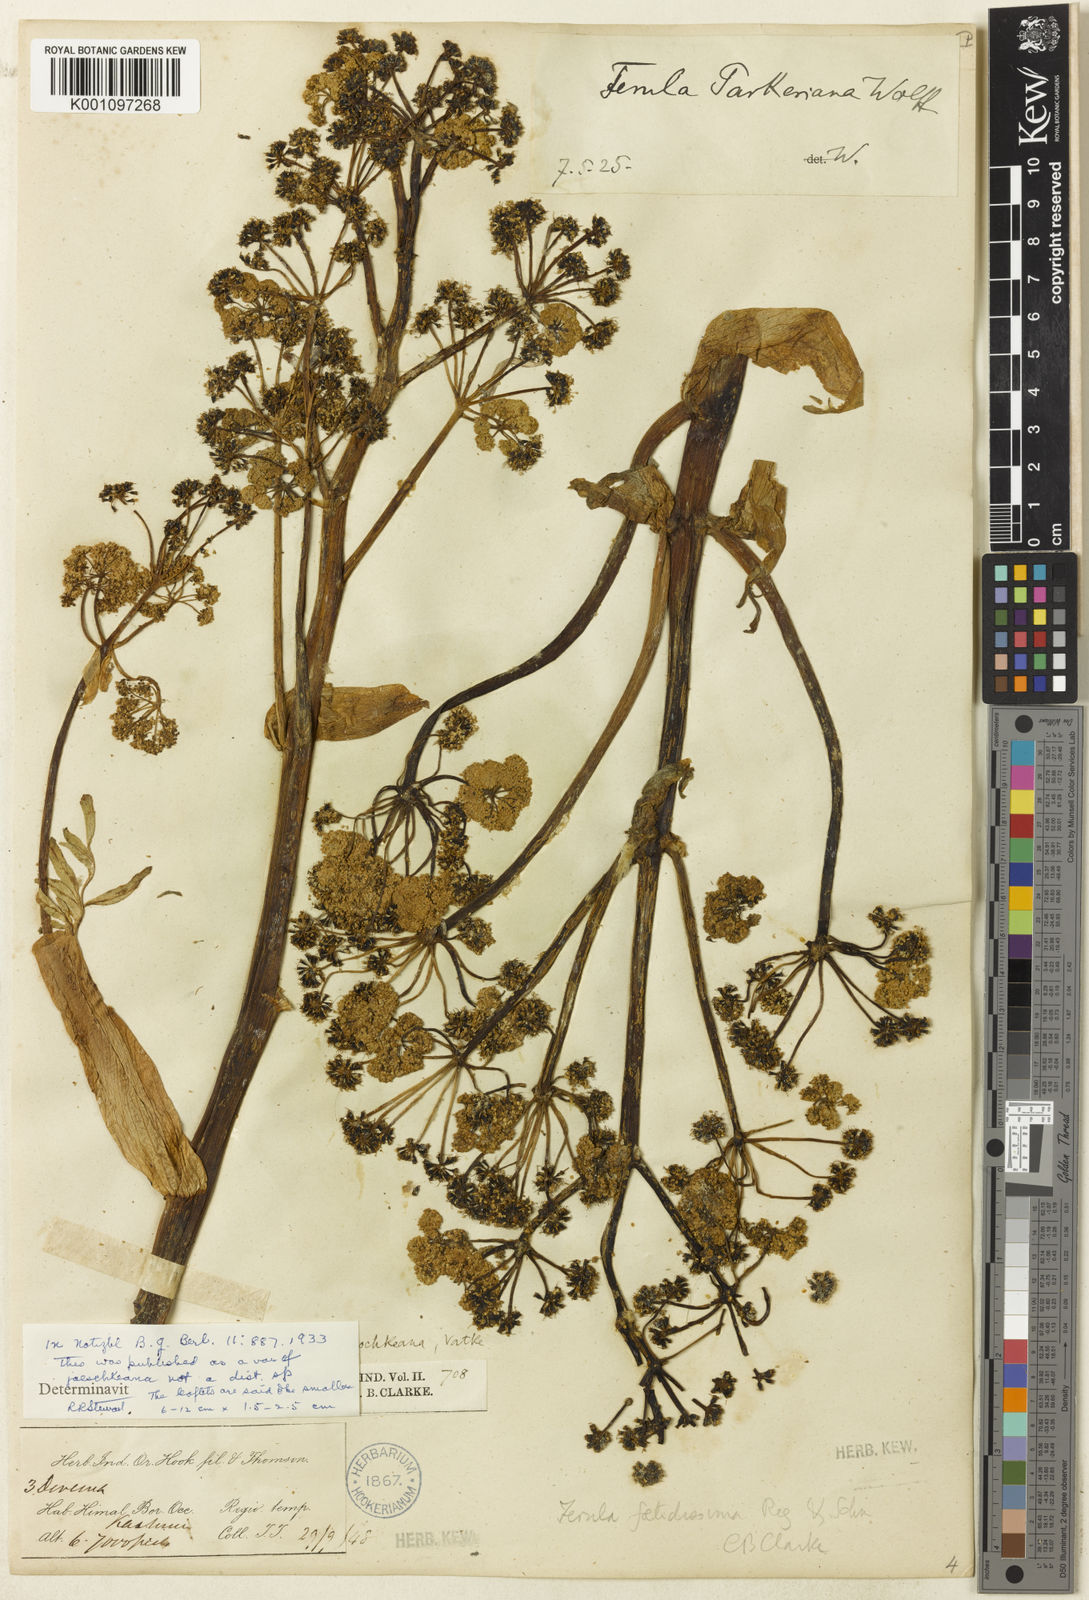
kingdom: Plantae
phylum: Tracheophyta
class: Magnoliopsida
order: Apiales
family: Apiaceae
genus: Ferula
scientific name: Ferula
